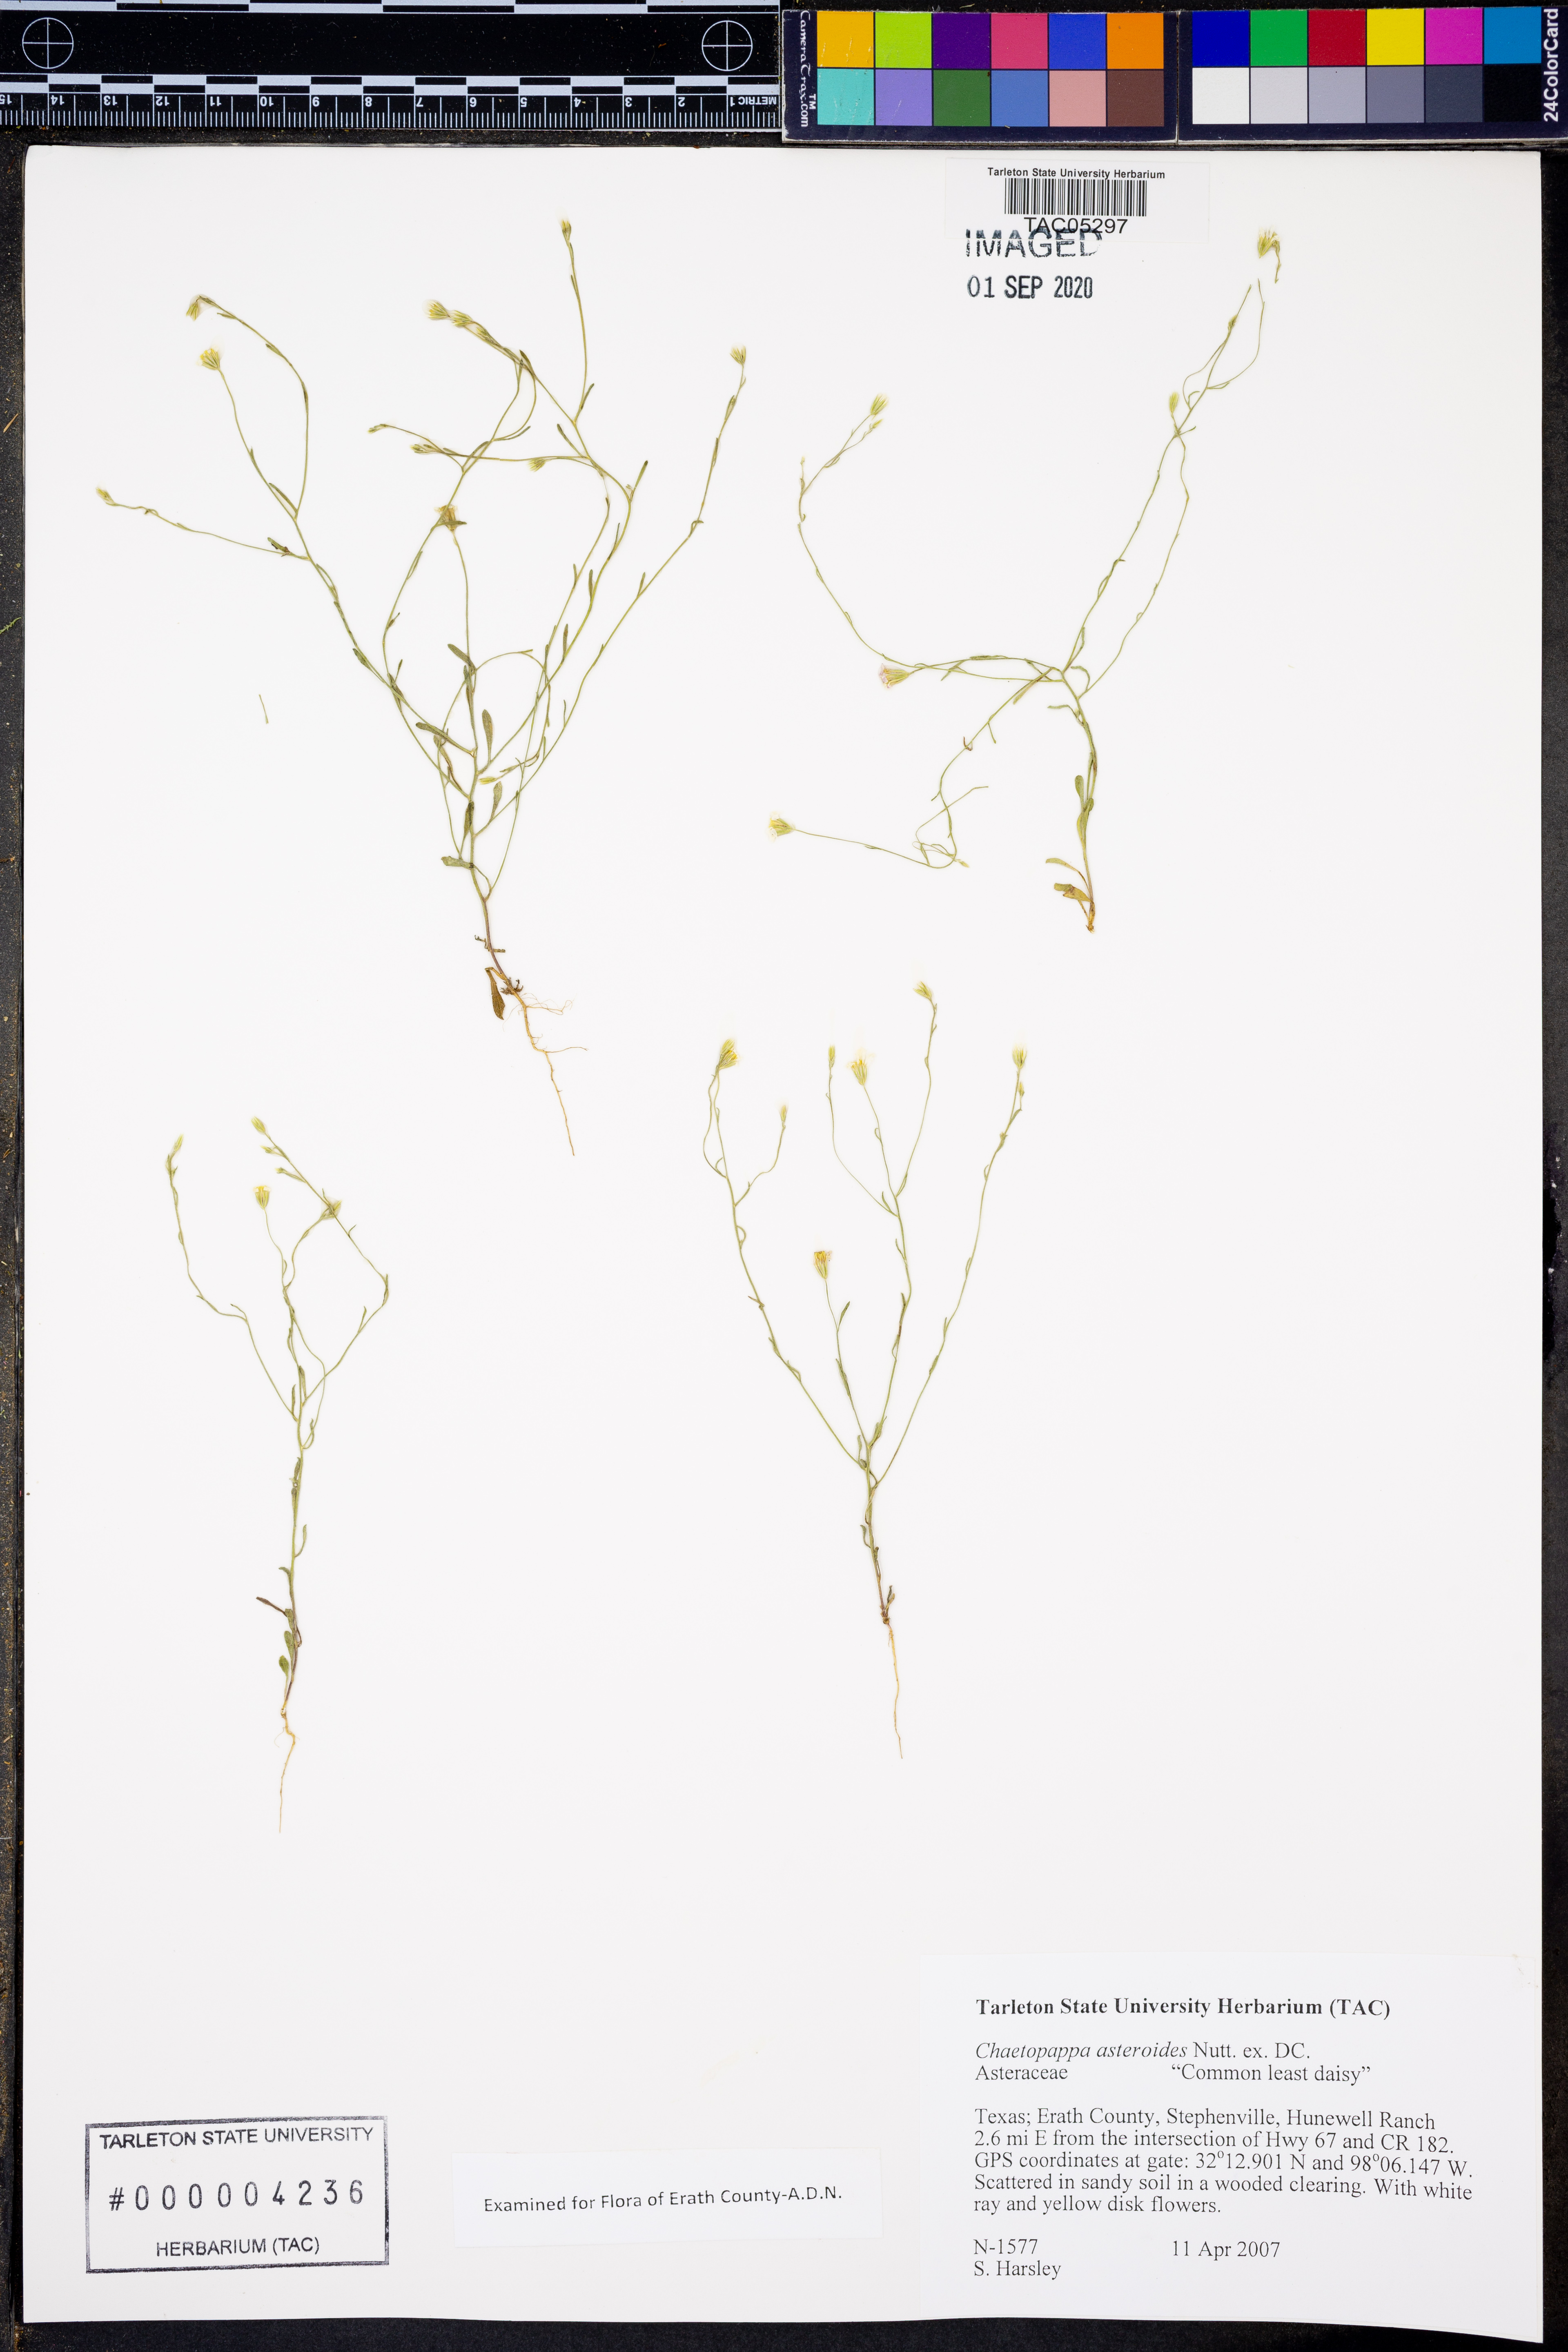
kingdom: Plantae
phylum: Tracheophyta
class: Magnoliopsida
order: Asterales
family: Asteraceae
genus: Chaetopappa
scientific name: Chaetopappa asteroides
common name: Tiny lazy daisy
